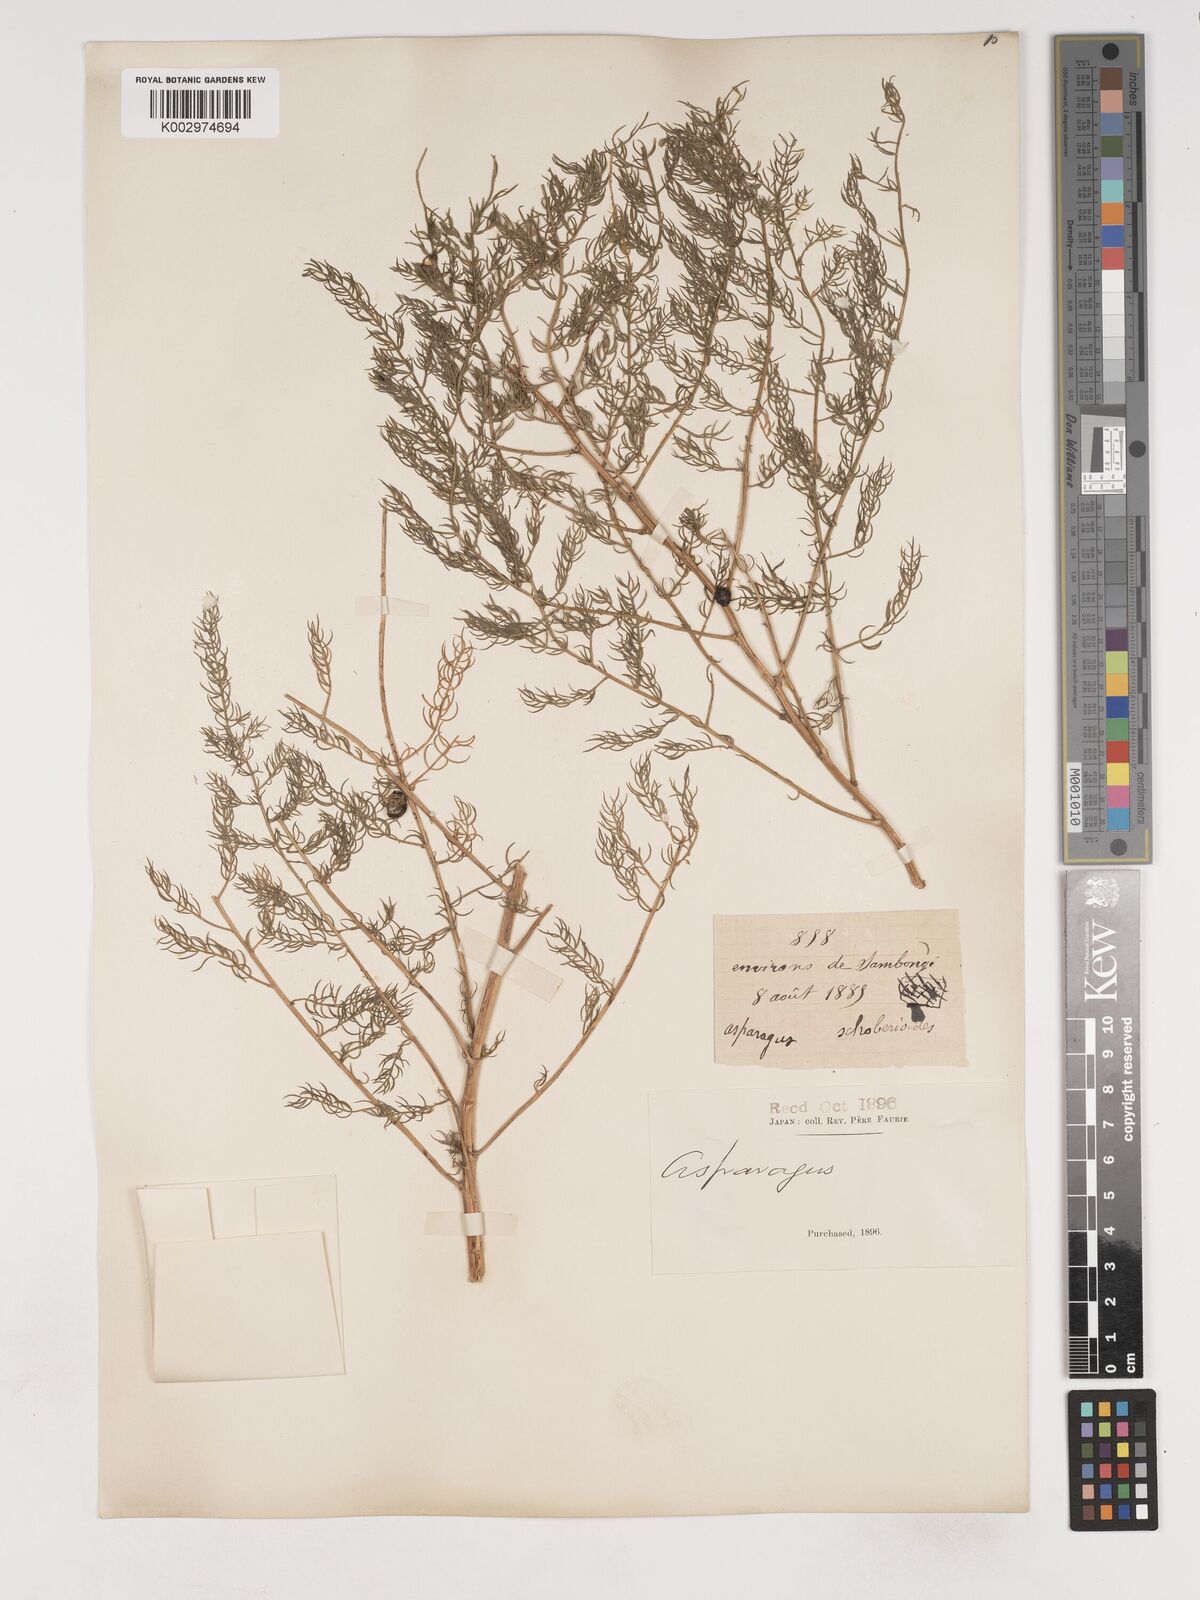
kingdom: Plantae
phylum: Tracheophyta
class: Liliopsida
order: Asparagales
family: Asparagaceae
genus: Asparagus
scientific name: Asparagus schoberioides
